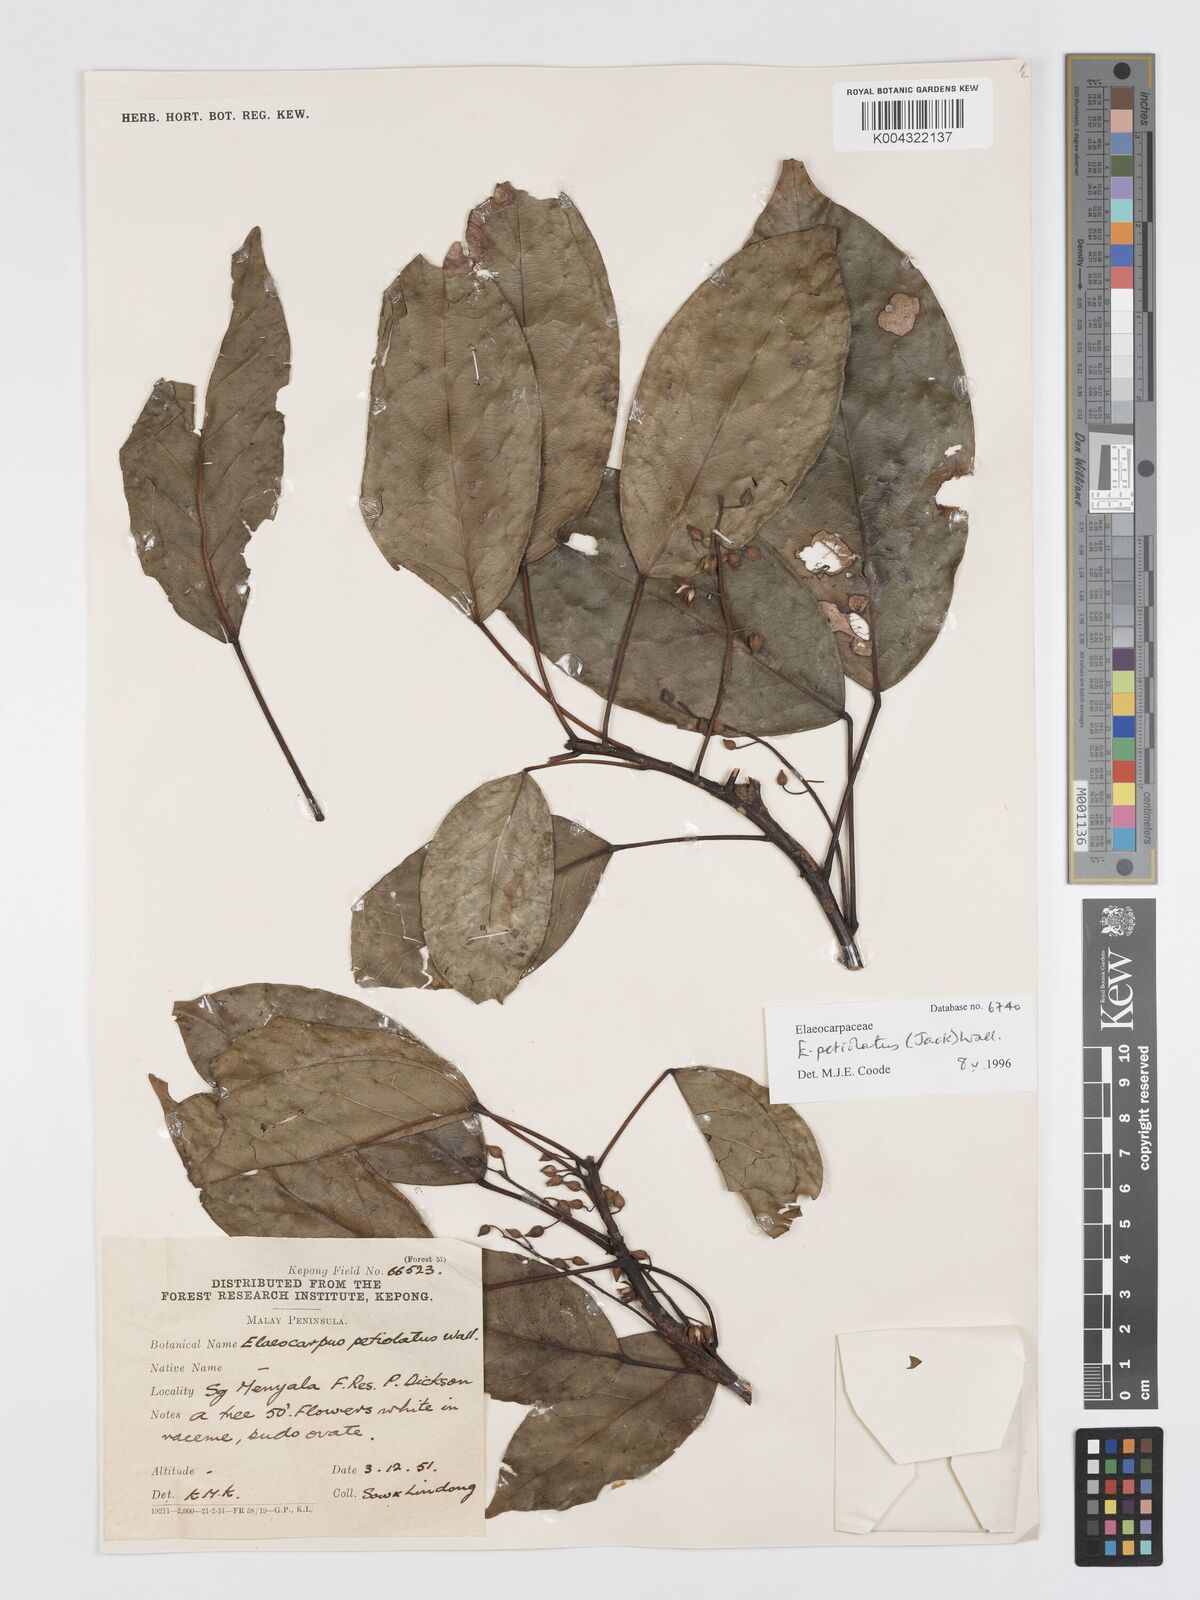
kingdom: Plantae
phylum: Tracheophyta
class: Magnoliopsida
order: Oxalidales
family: Elaeocarpaceae
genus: Elaeocarpus
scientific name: Elaeocarpus petiolatus
